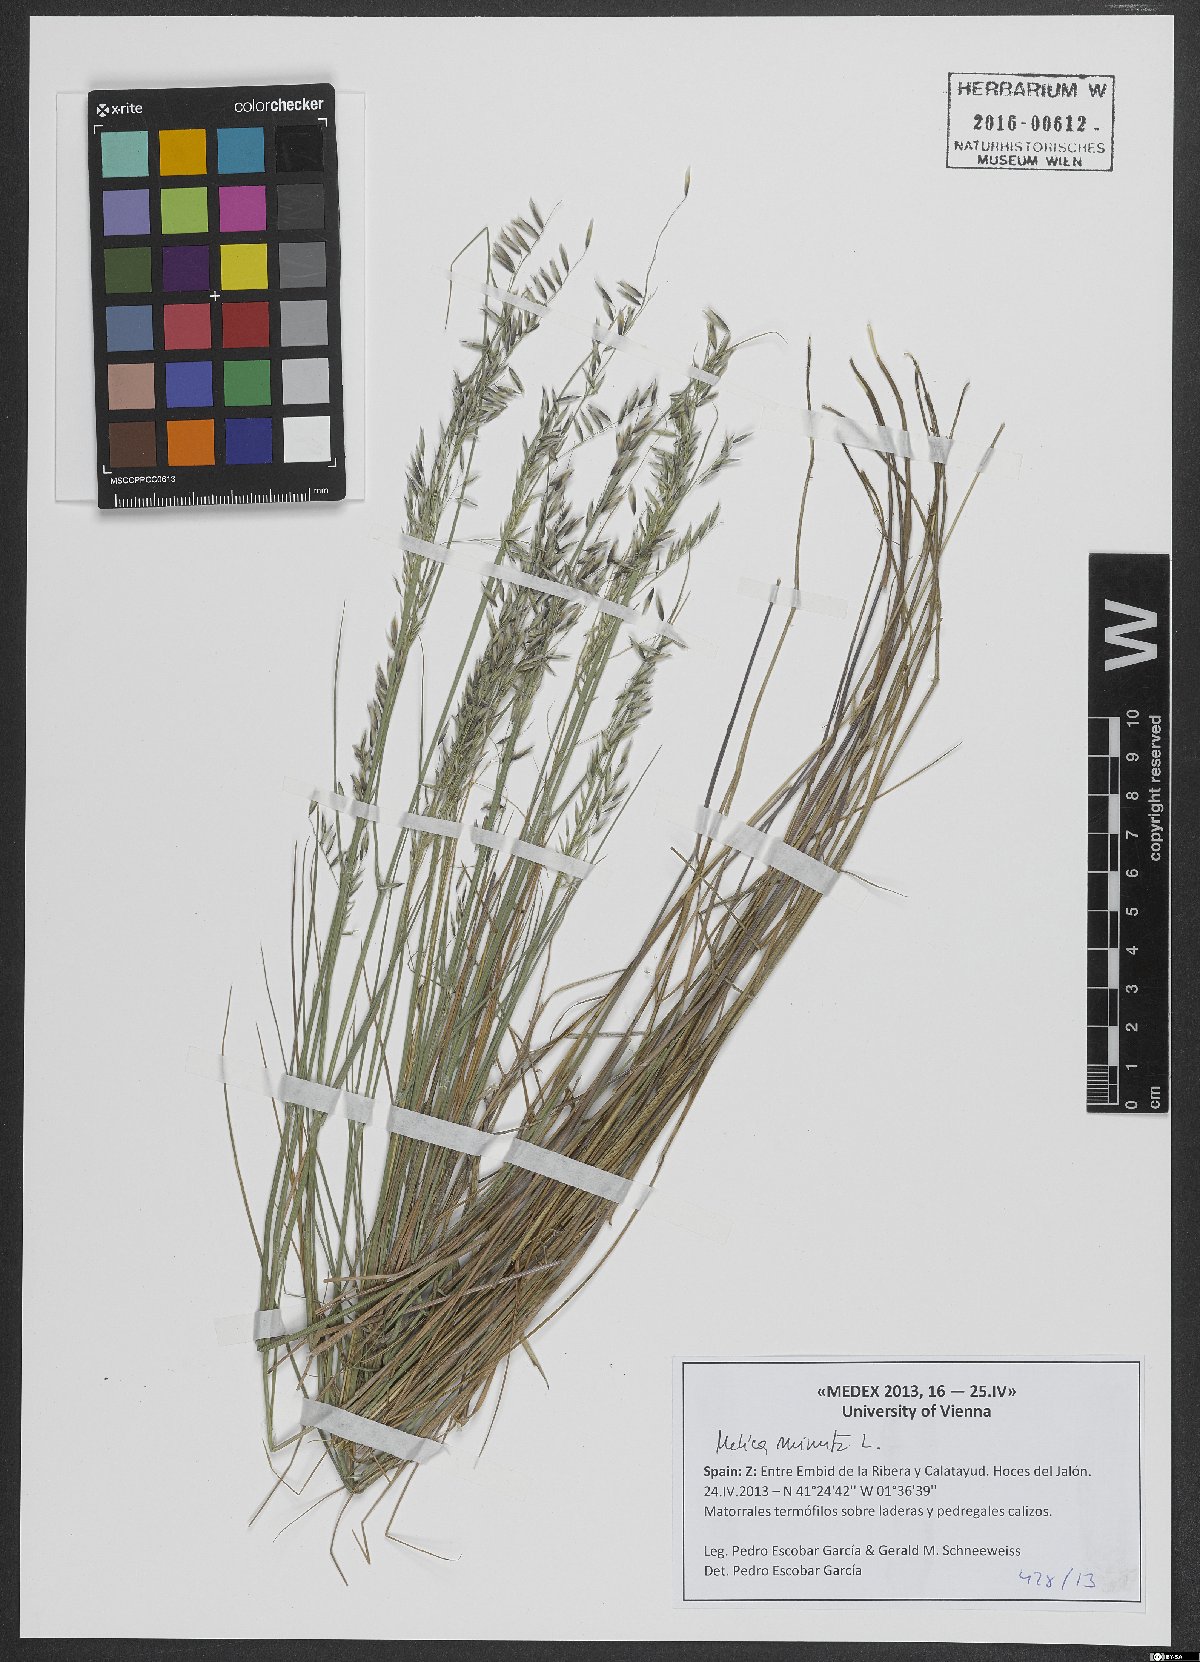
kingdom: Plantae
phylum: Tracheophyta
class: Liliopsida
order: Poales
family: Poaceae
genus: Melica
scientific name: Melica minuta
